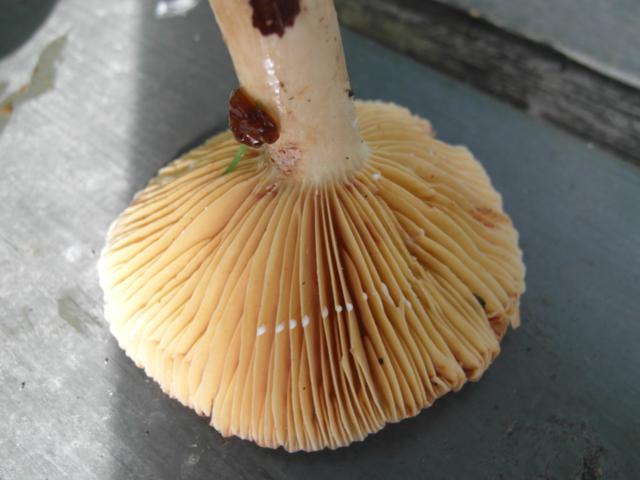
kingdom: Fungi
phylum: Basidiomycota
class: Agaricomycetes
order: Russulales
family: Russulaceae
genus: Lactarius
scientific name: Lactarius ruginosus
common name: gråbrun mælkehat
